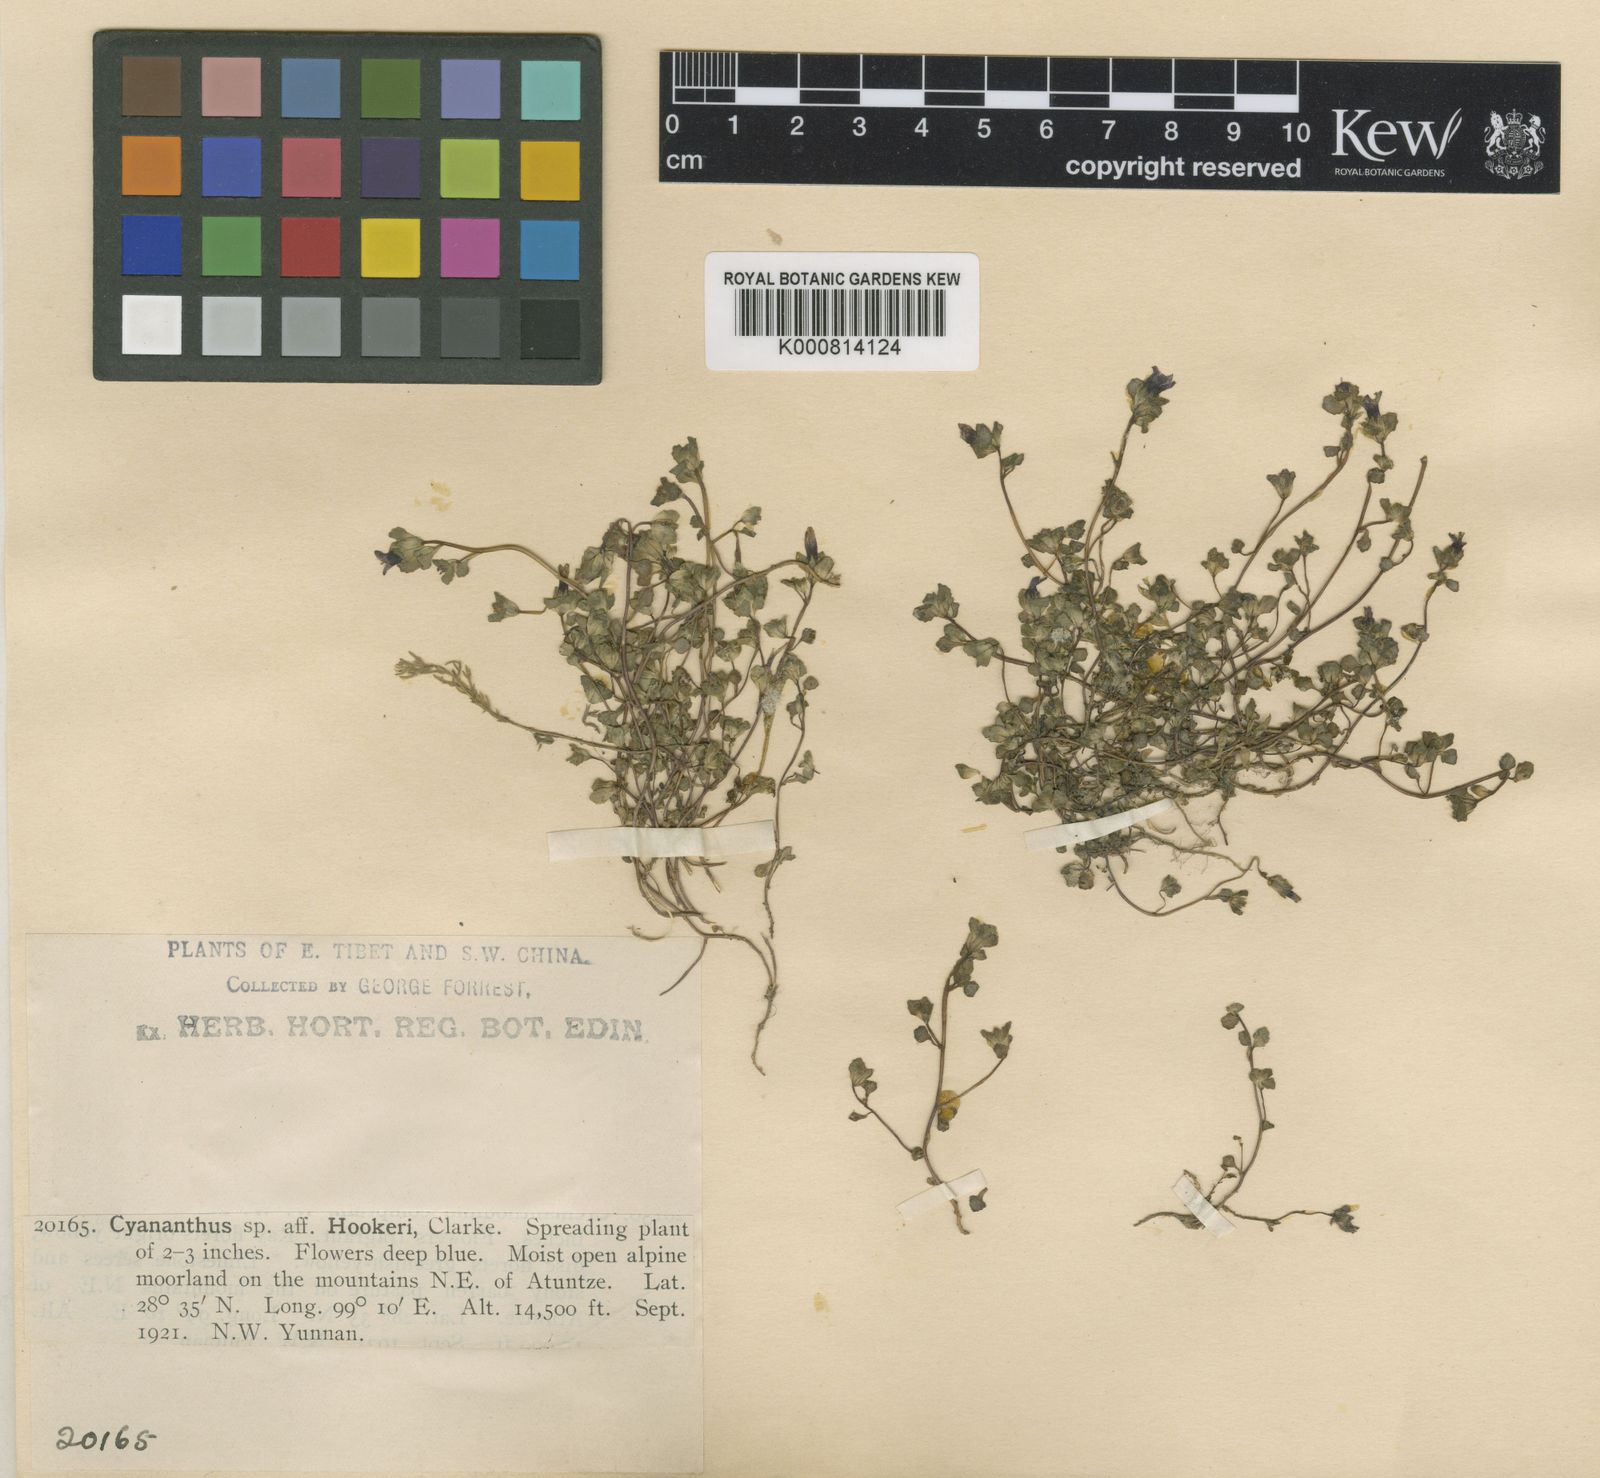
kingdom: Plantae
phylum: Tracheophyta
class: Magnoliopsida
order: Asterales
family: Campanulaceae
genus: Cyananthus
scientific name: Cyananthus hookeri
